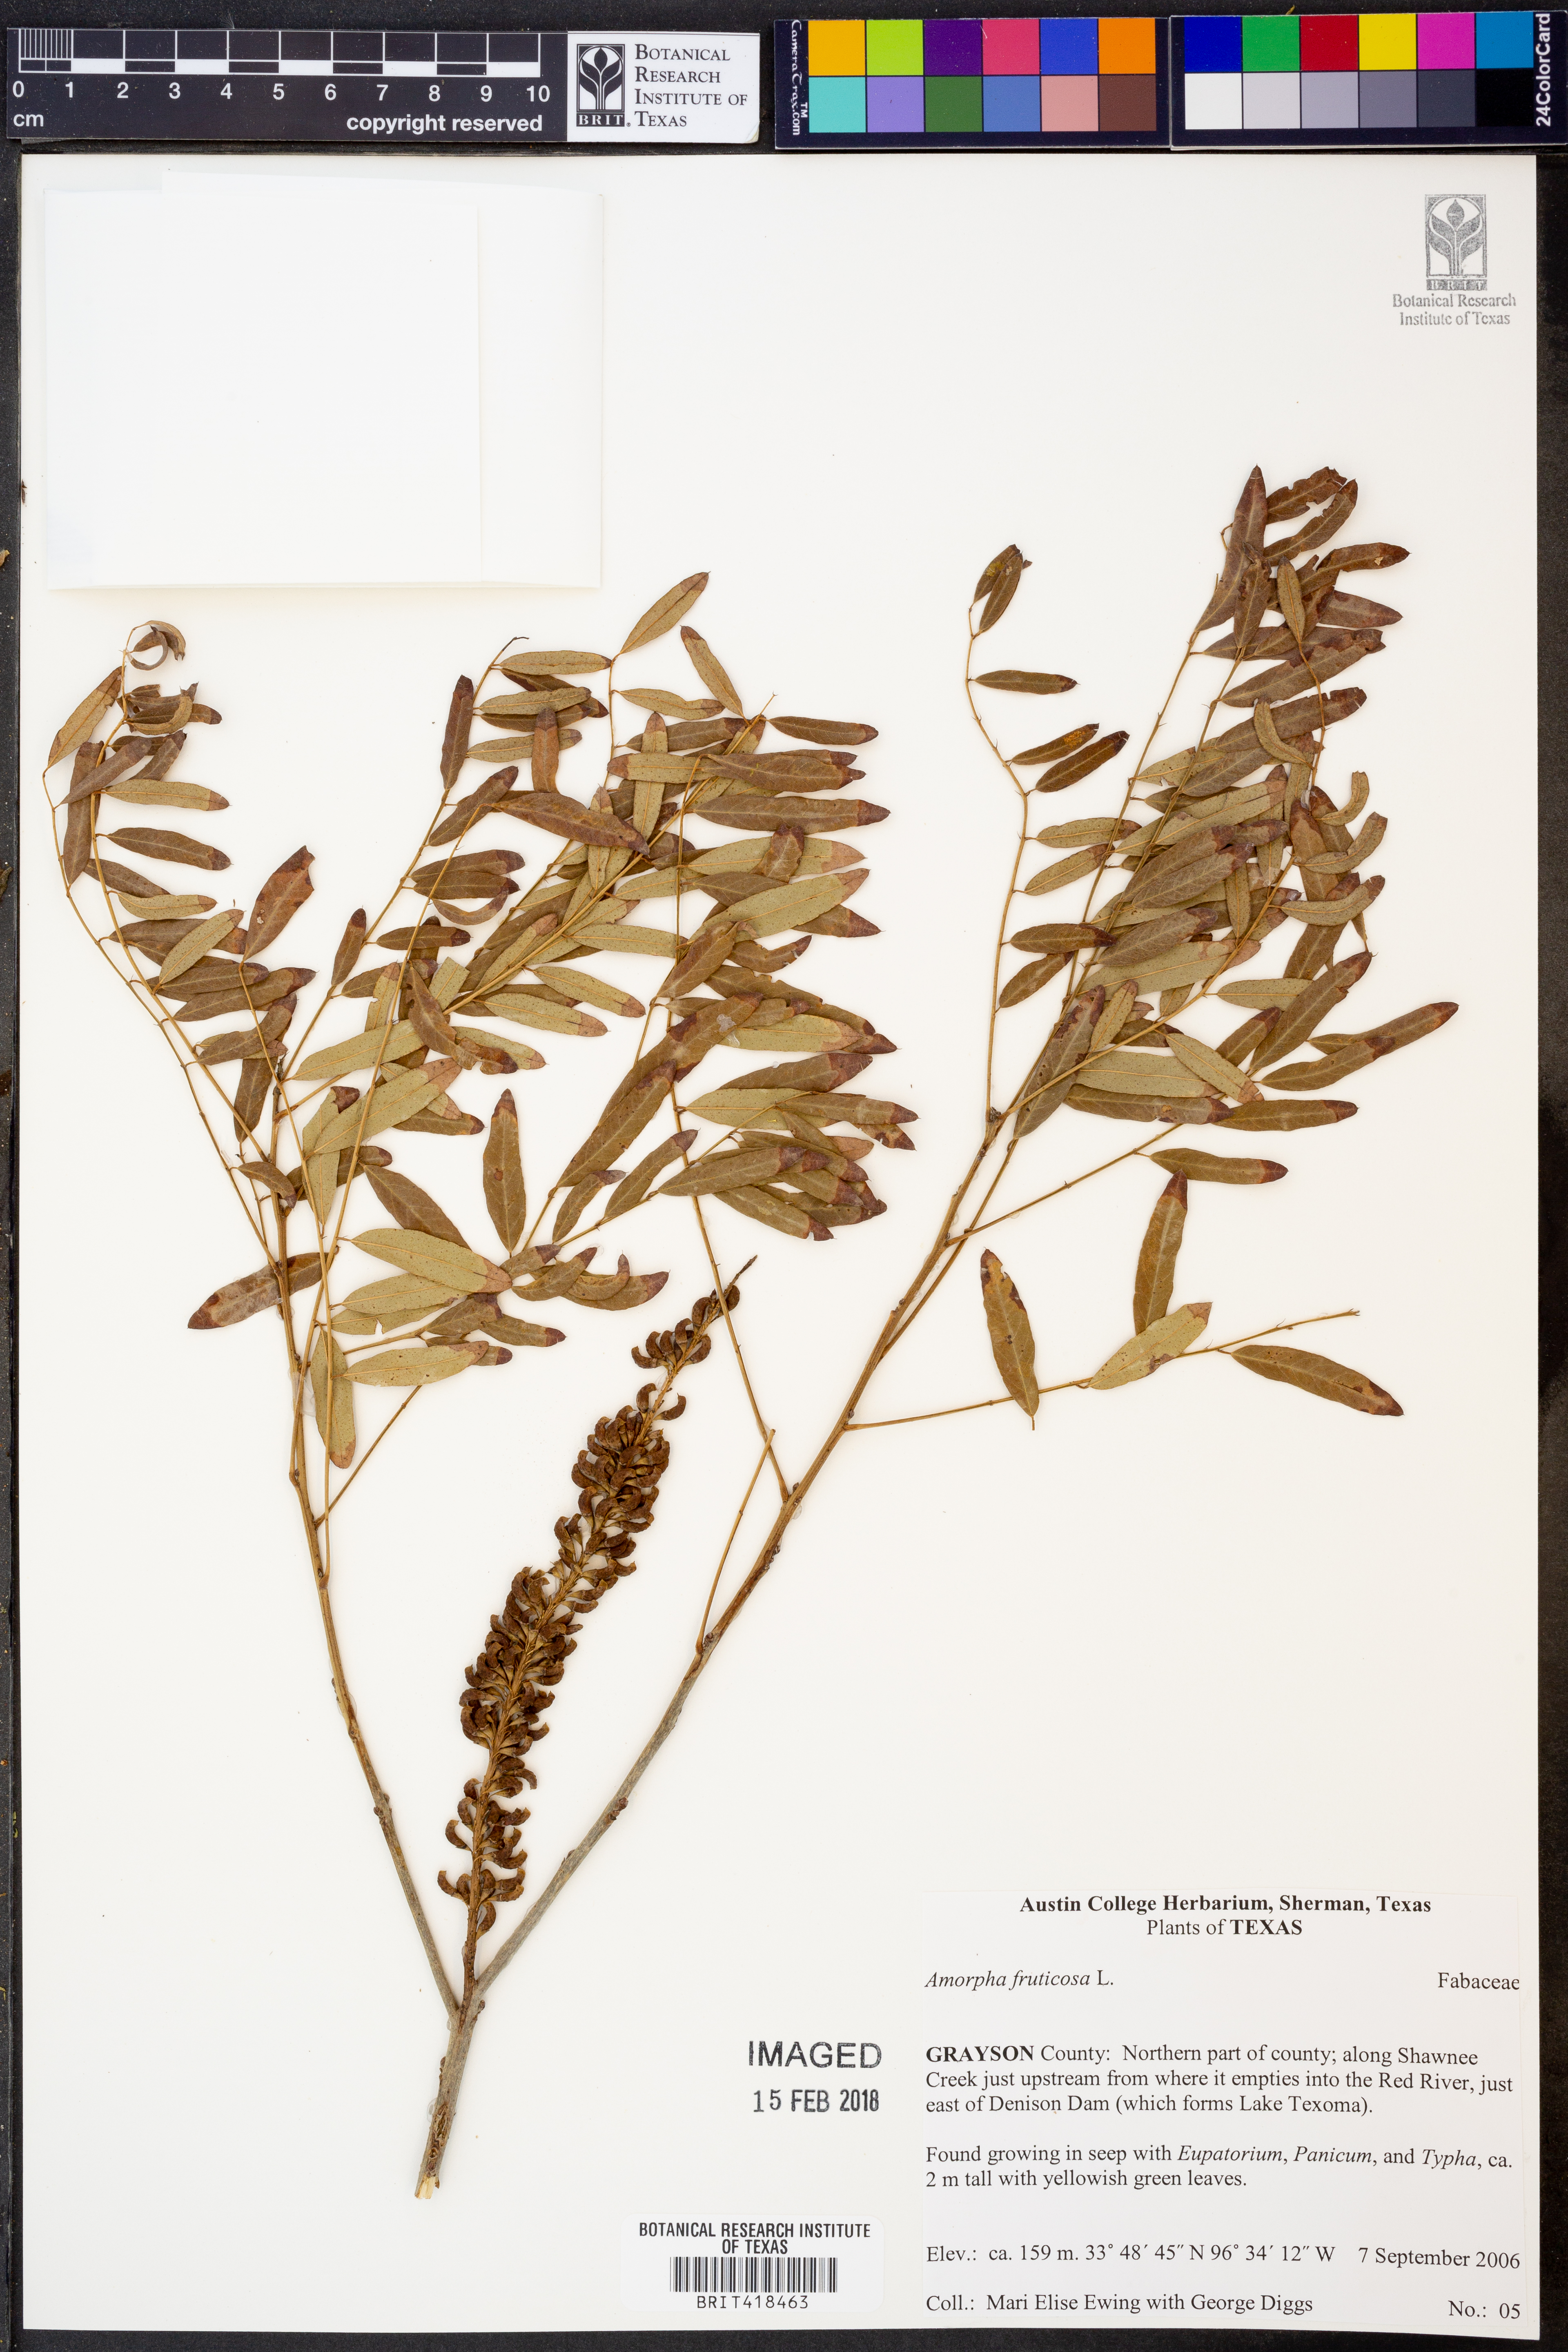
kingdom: Plantae
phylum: Tracheophyta
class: Magnoliopsida
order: Fabales
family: Fabaceae
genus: Amorpha
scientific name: Amorpha fruticosa
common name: False indigo
